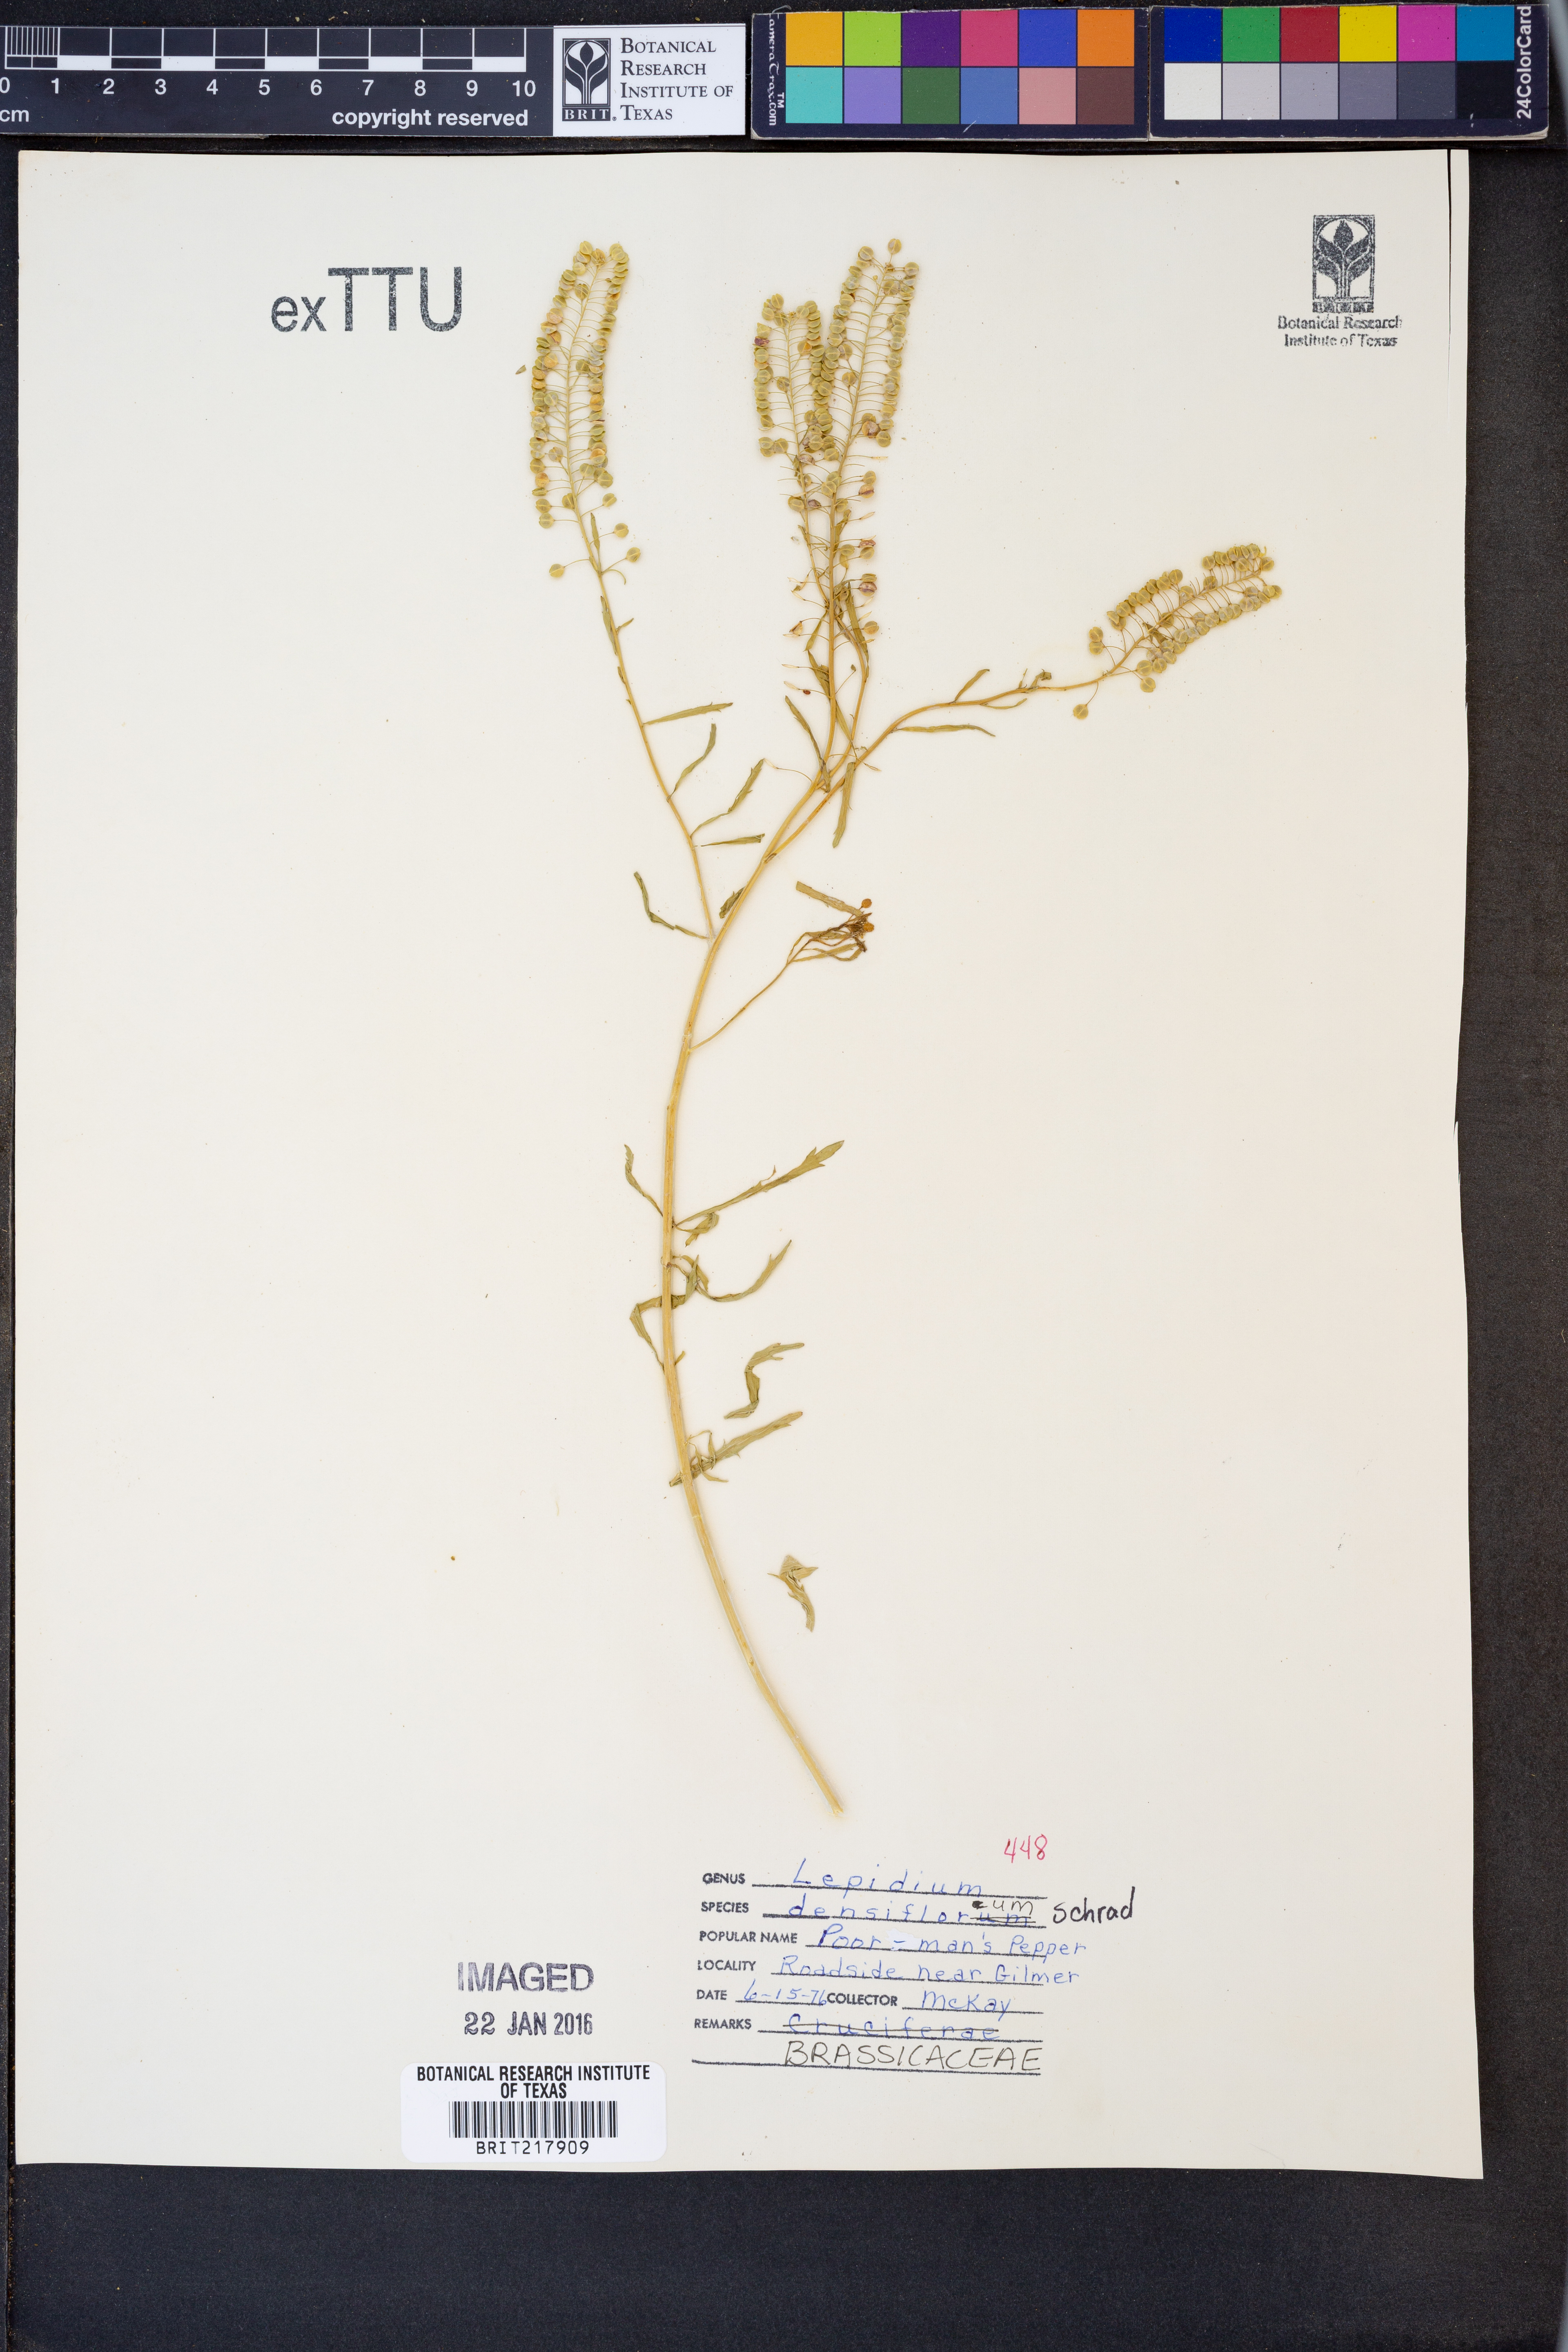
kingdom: Plantae
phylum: Tracheophyta
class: Magnoliopsida
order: Brassicales
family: Brassicaceae
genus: Lepidium
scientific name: Lepidium densiflorum
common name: Miner's pepperwort
